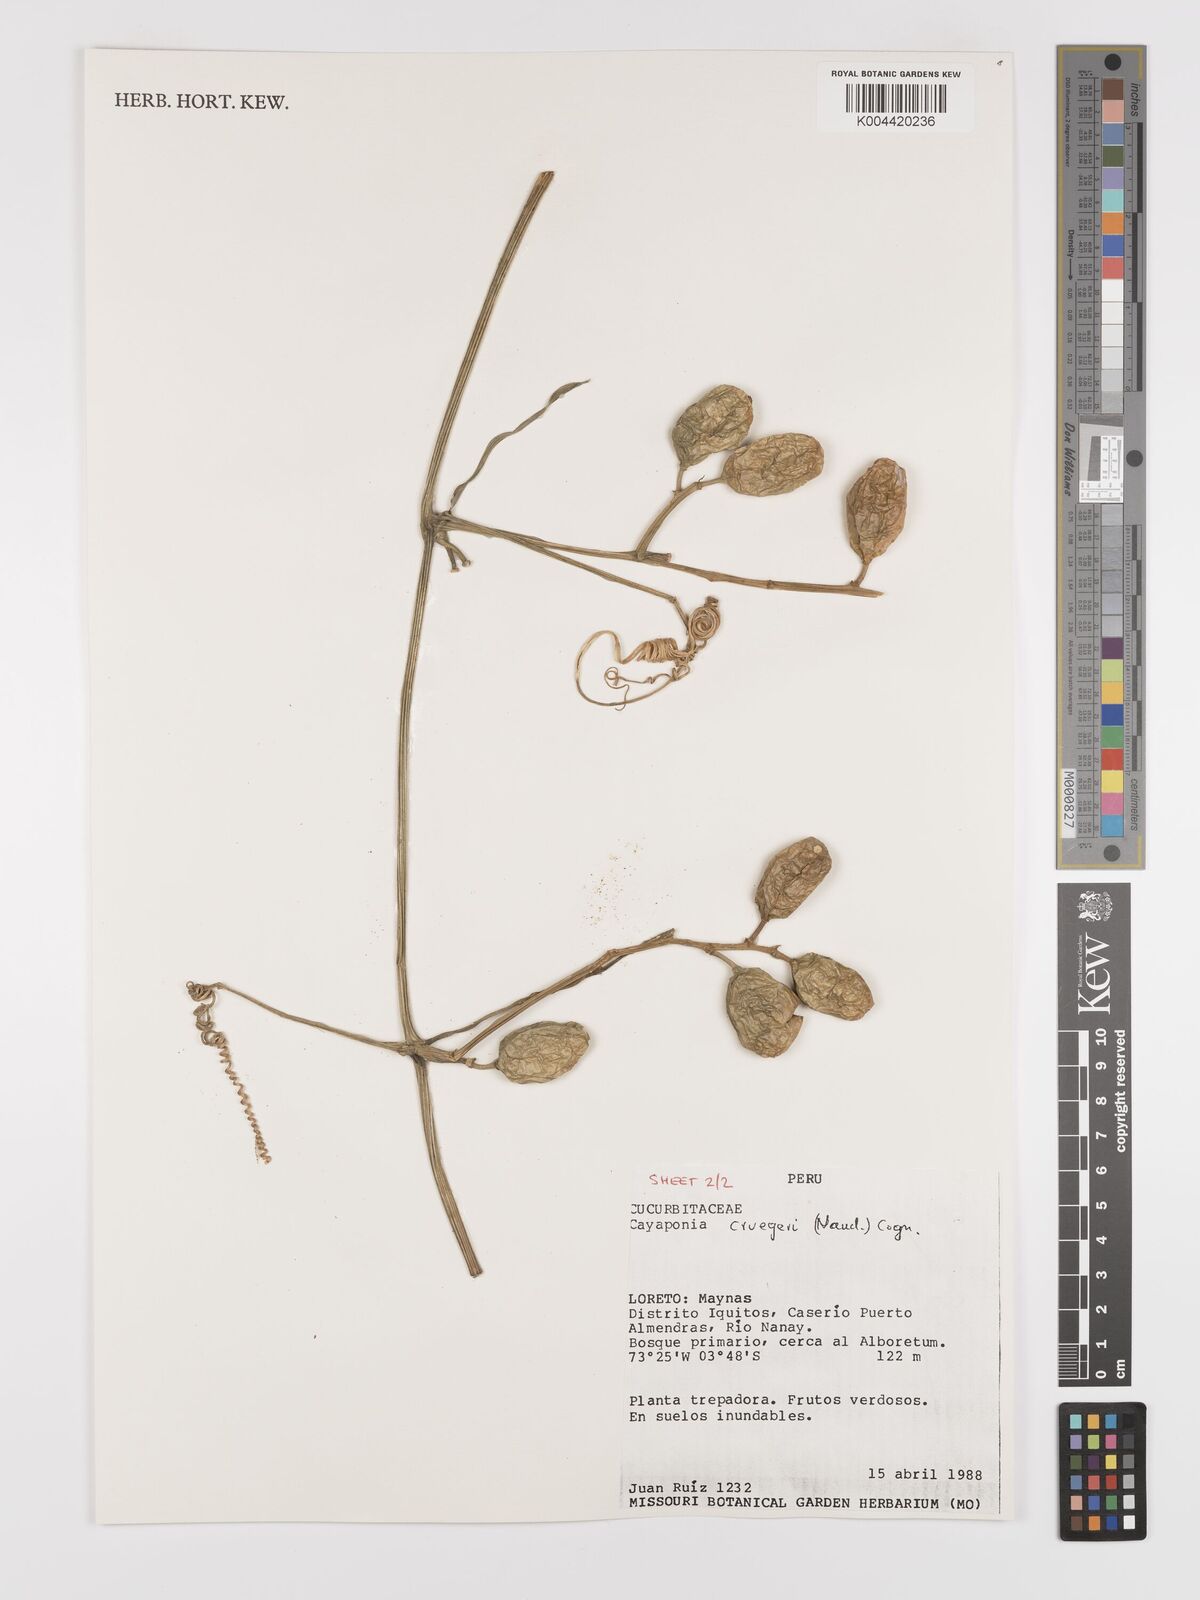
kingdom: Plantae
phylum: Tracheophyta
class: Magnoliopsida
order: Cucurbitales
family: Cucurbitaceae
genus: Cayaponia
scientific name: Cayaponia cruegeri
